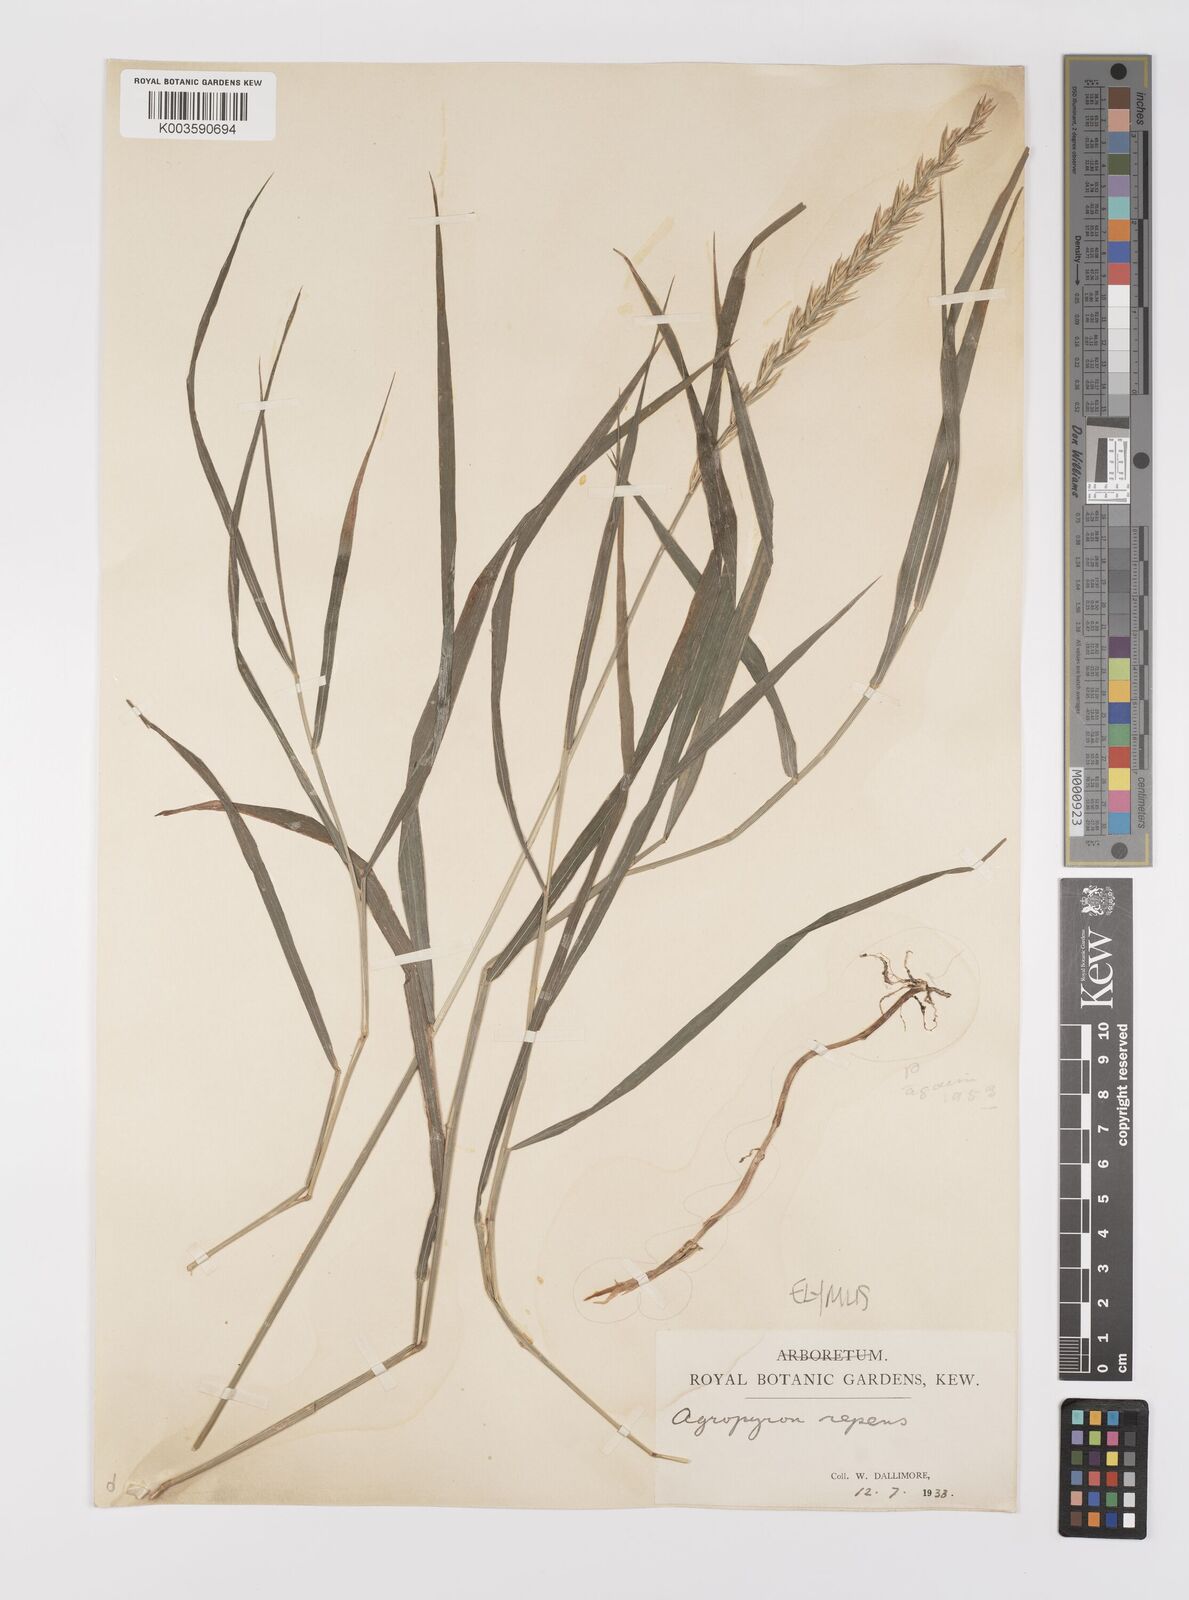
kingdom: Plantae
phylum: Tracheophyta
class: Liliopsida
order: Poales
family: Poaceae
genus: Elymus
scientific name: Elymus repens
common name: Quackgrass
